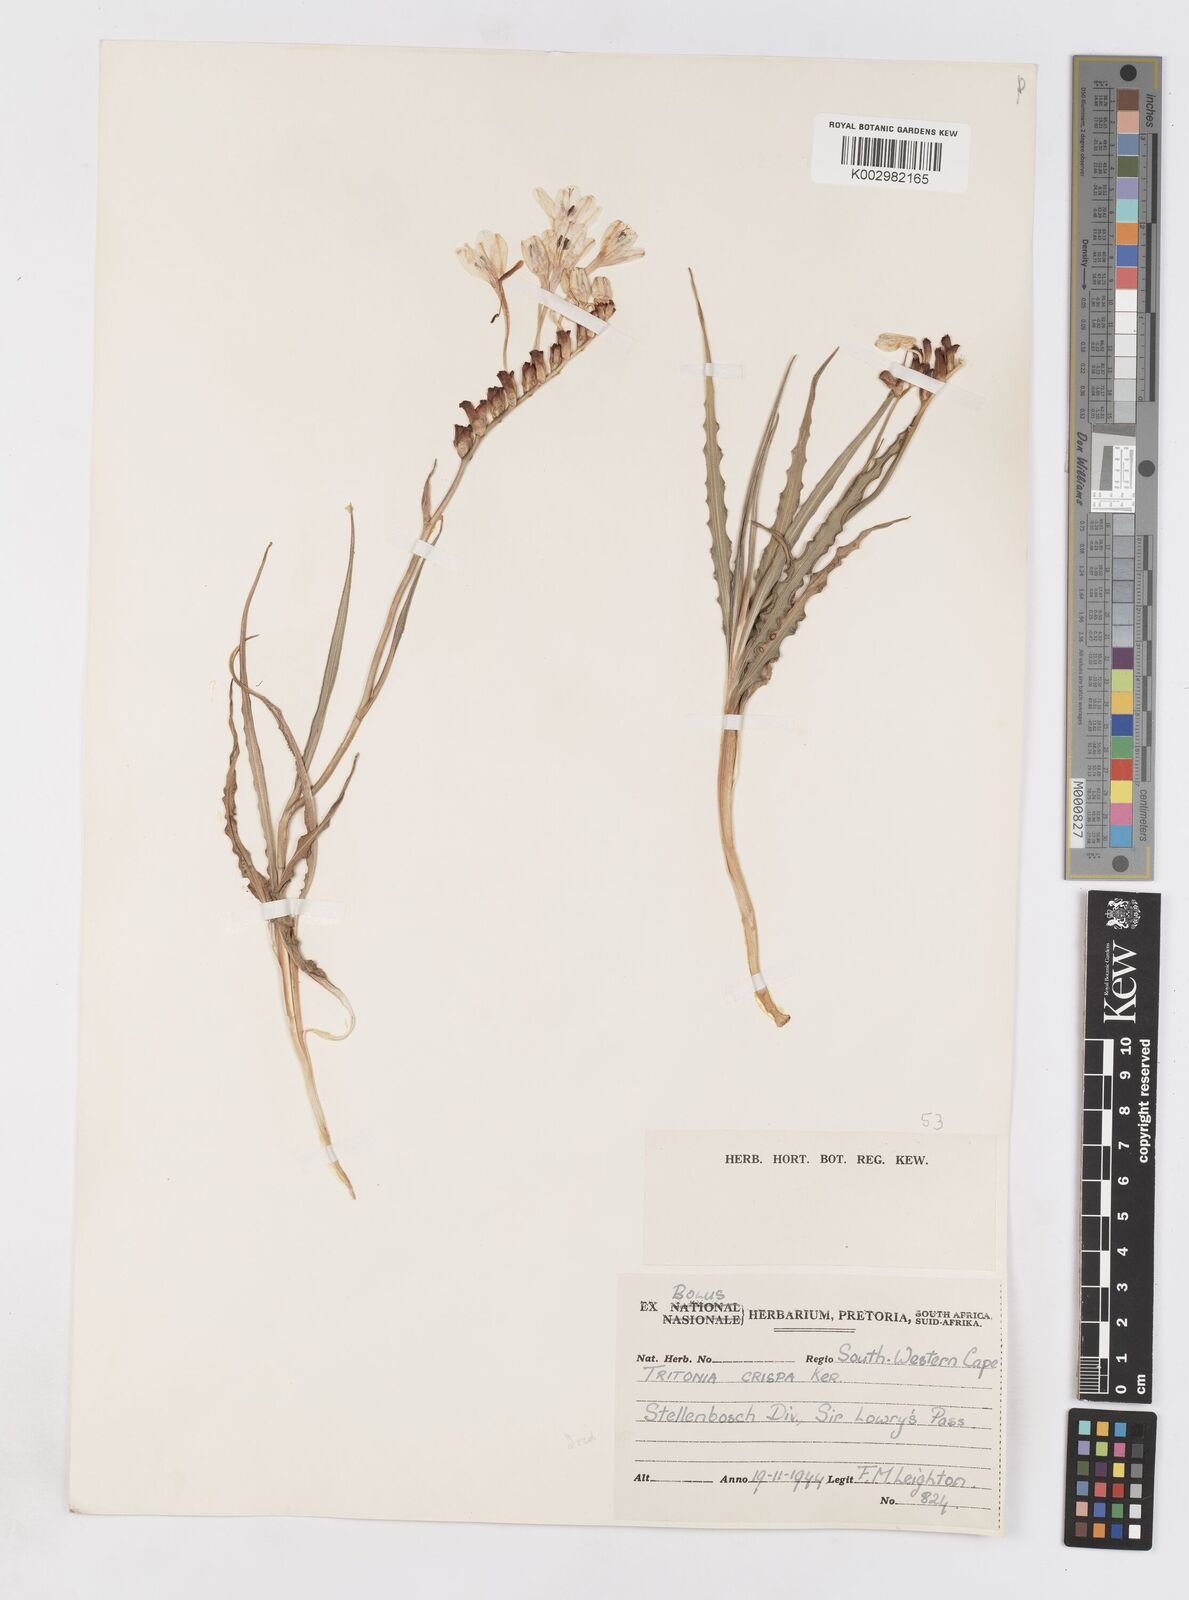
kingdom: Plantae
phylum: Tracheophyta
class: Liliopsida
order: Asparagales
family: Iridaceae
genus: Tritonia
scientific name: Tritonia undulata
